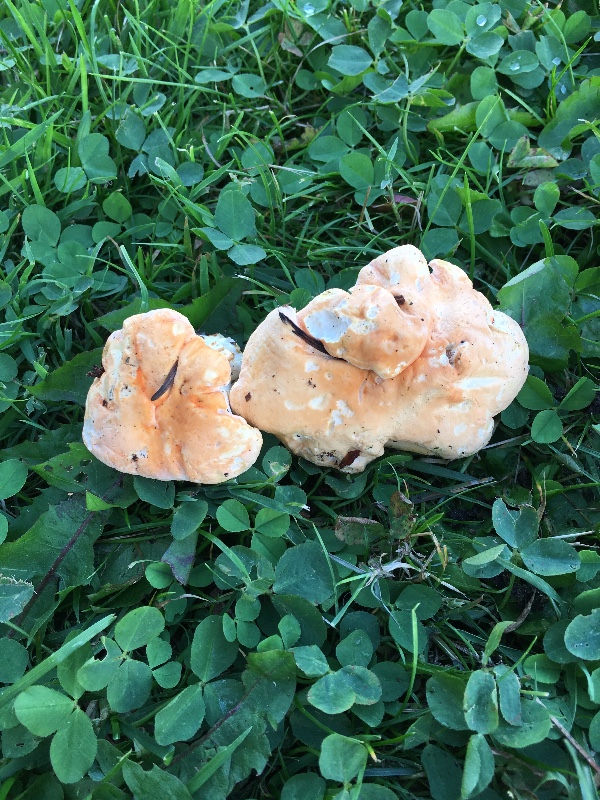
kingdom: Fungi
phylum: Basidiomycota
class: Agaricomycetes
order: Cantharellales
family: Hydnaceae
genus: Hydnum
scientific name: Hydnum
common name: pigsvamp
